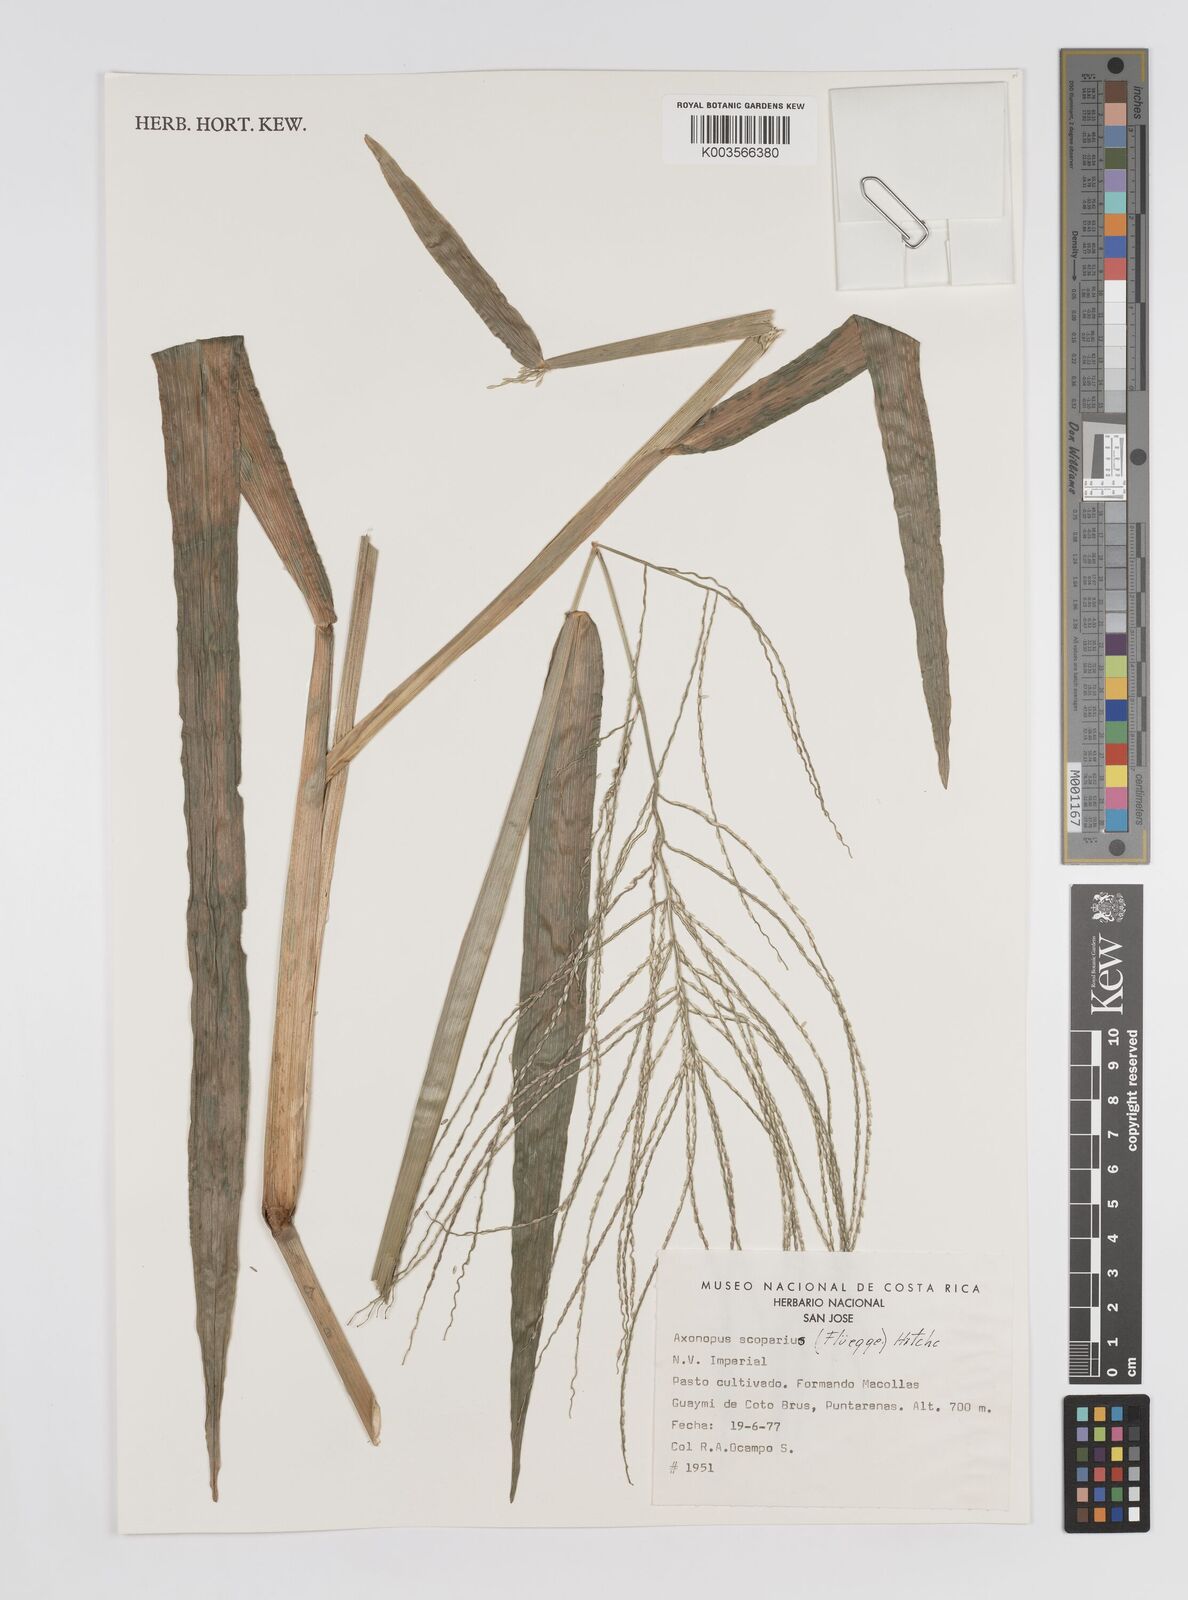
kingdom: Plantae
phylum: Tracheophyta
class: Liliopsida
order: Poales
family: Poaceae
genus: Axonopus
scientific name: Axonopus scoparius
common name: Imperial grass
